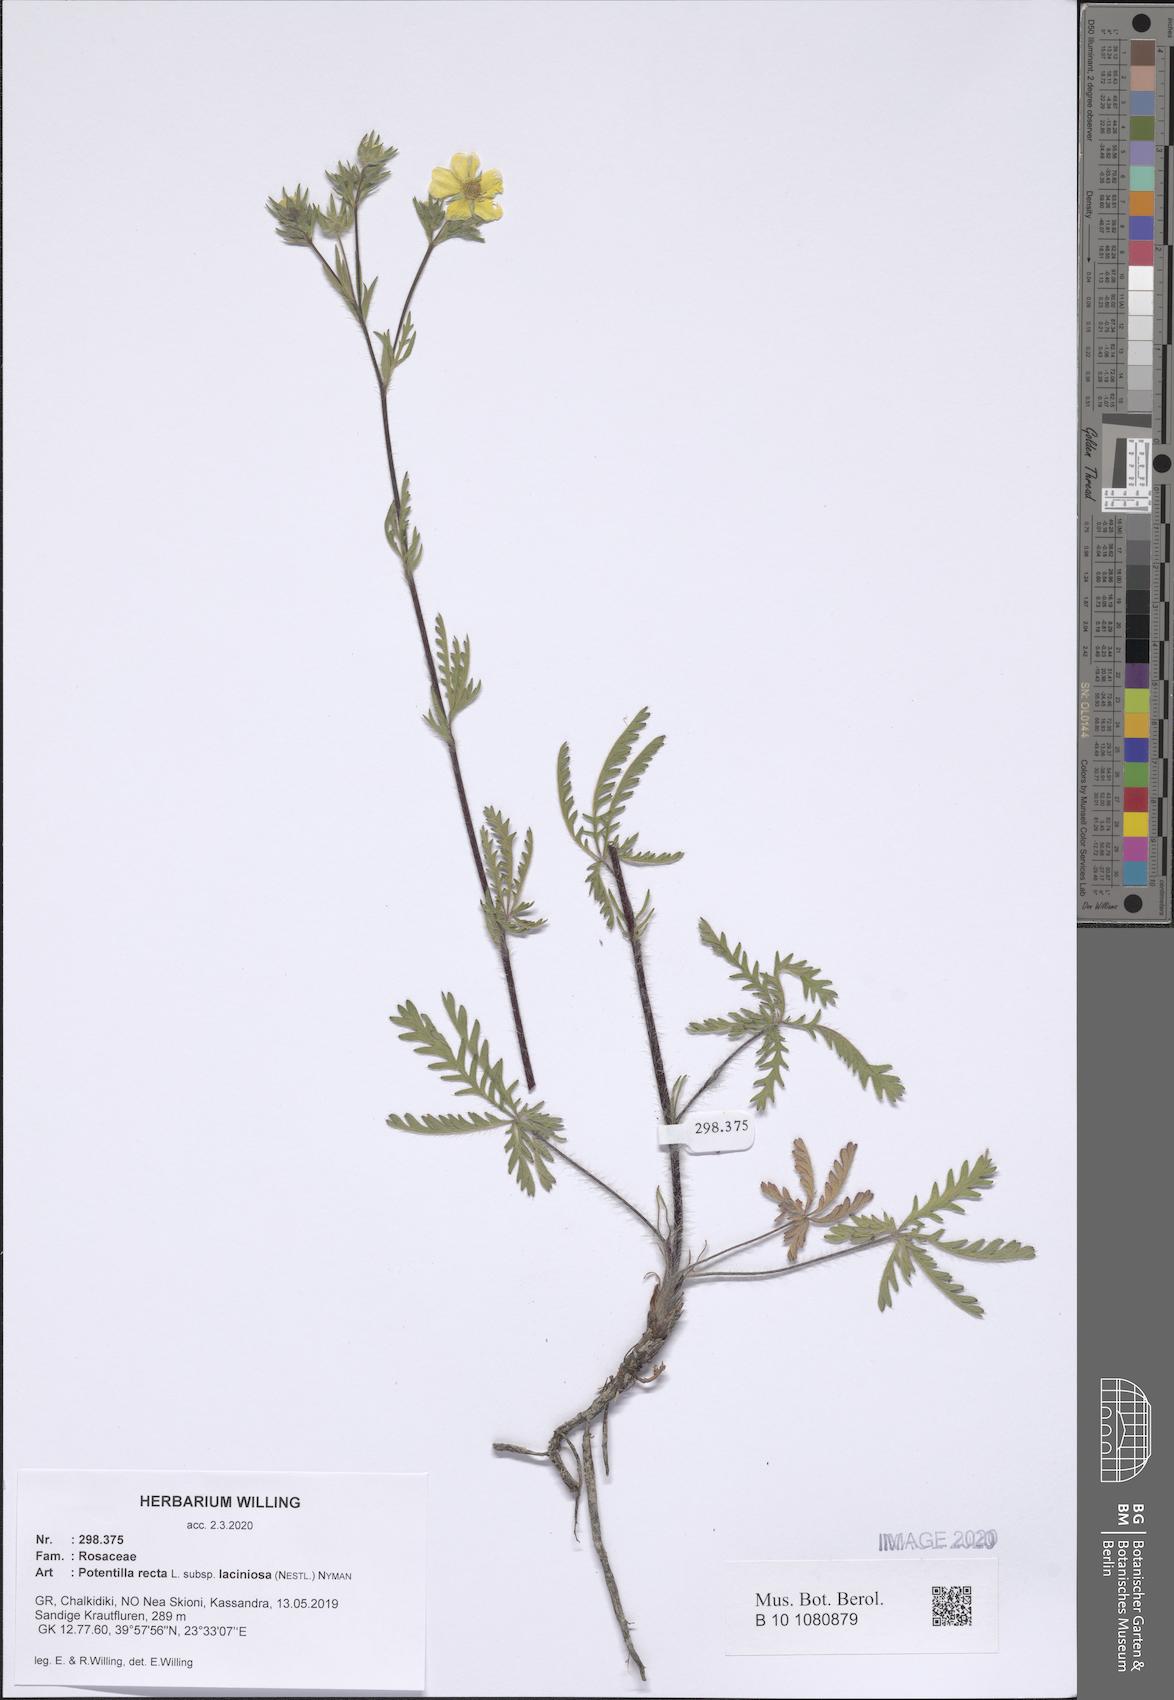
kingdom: Plantae
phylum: Tracheophyta
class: Magnoliopsida
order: Rosales
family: Rosaceae
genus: Potentilla
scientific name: Potentilla recta
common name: Sulphur cinquefoil
